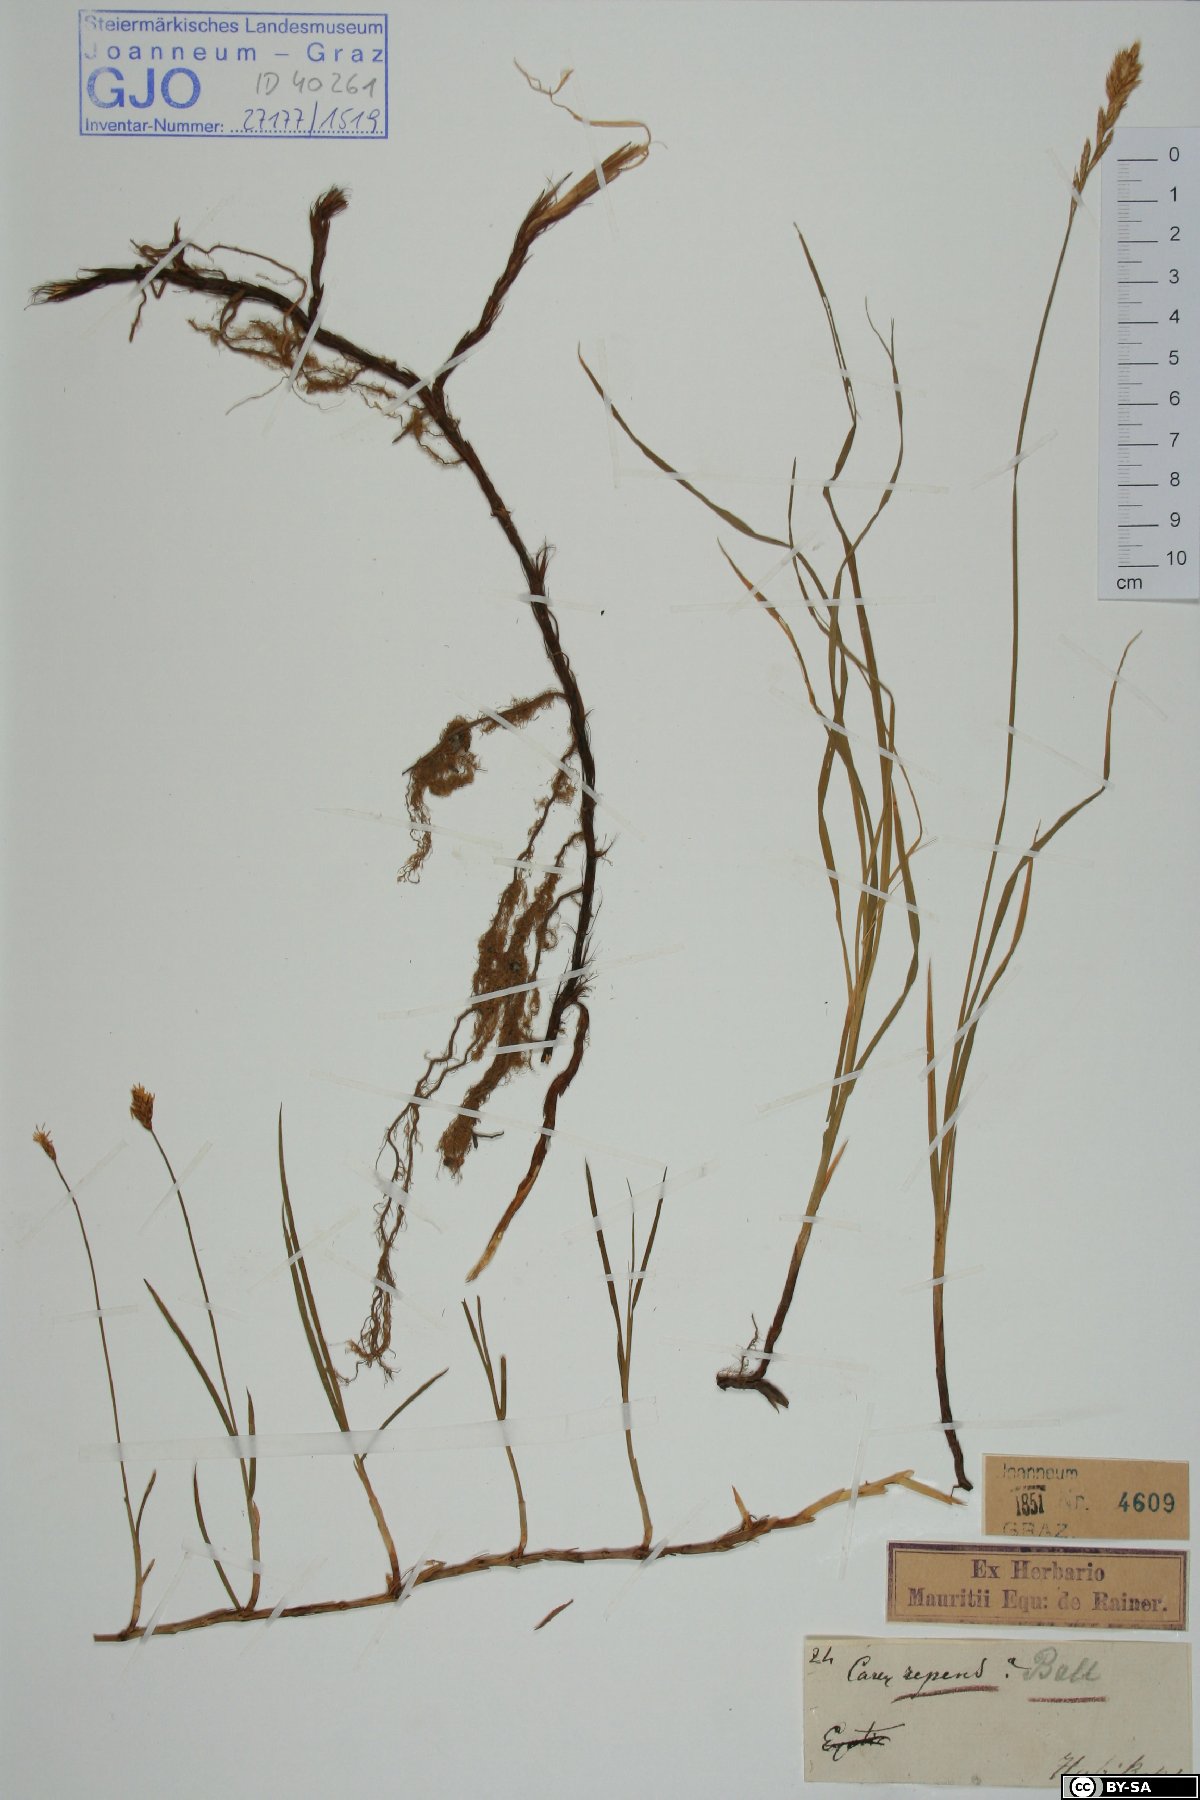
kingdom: Plantae
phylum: Tracheophyta
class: Liliopsida
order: Poales
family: Cyperaceae
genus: Carex
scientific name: Carex repens
